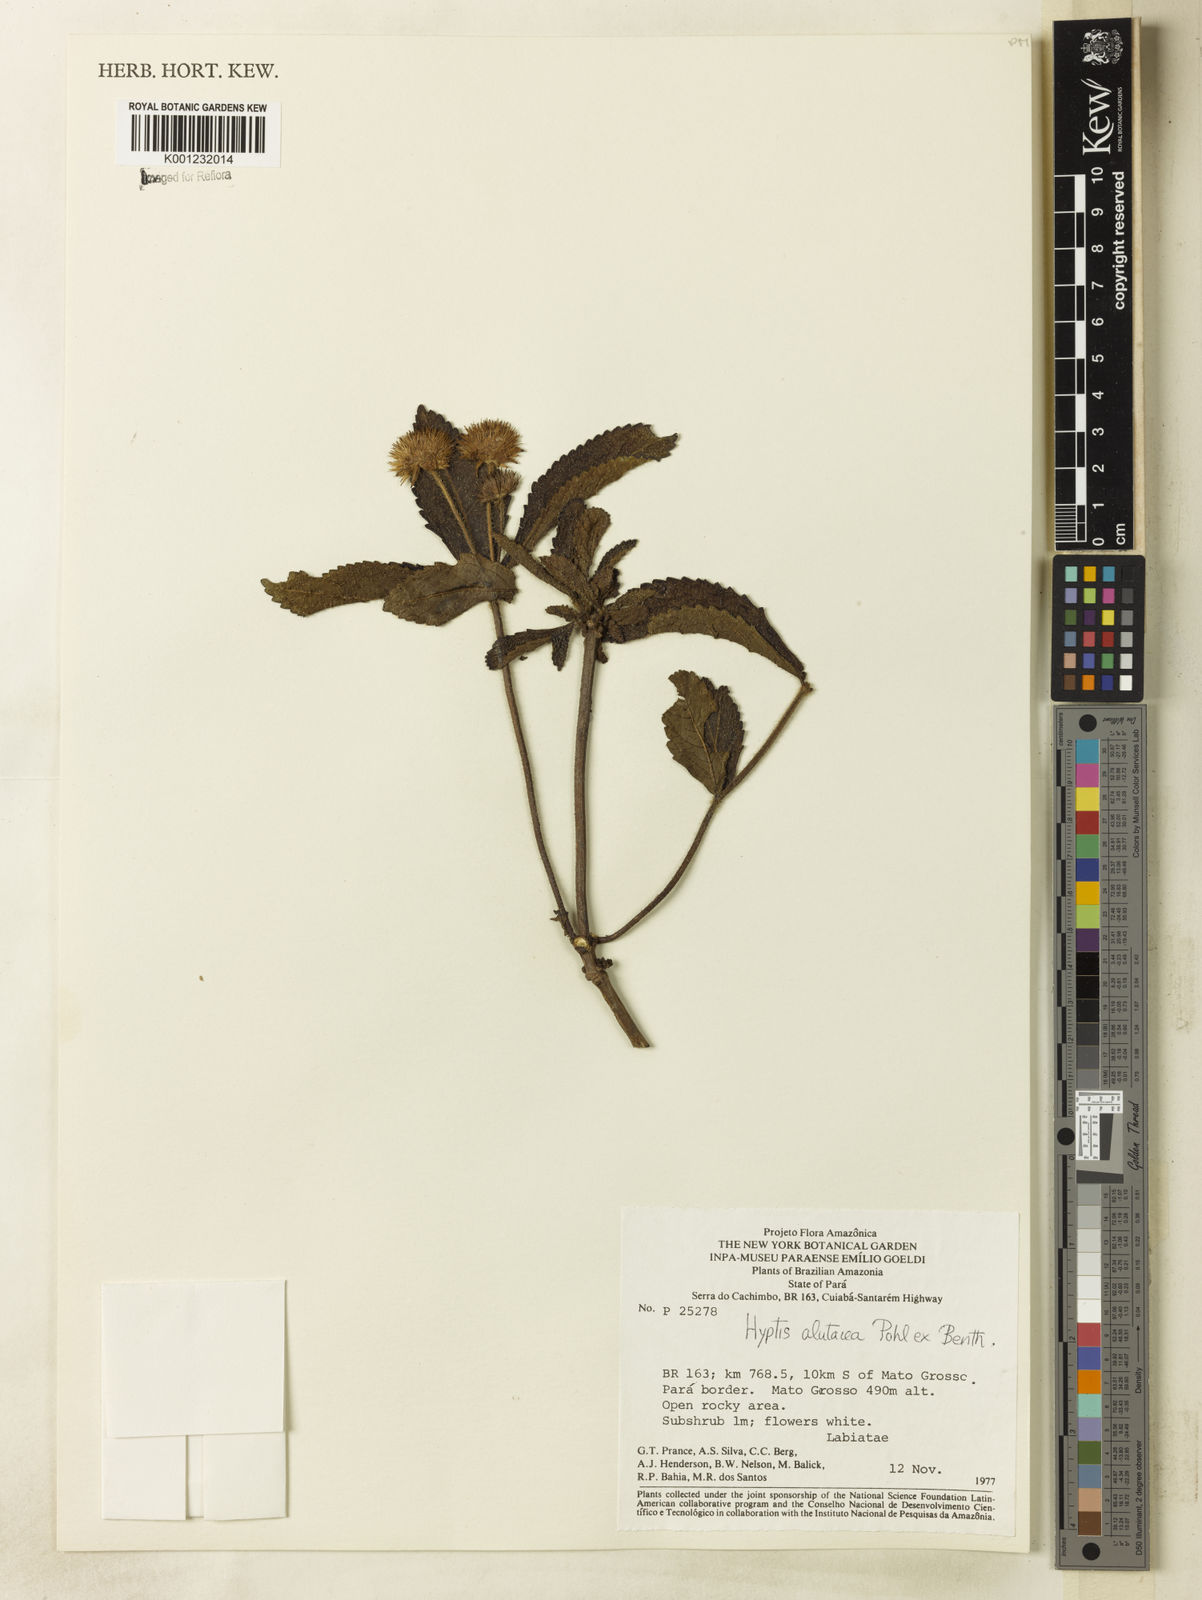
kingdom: Plantae
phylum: Tracheophyta
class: Magnoliopsida
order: Lamiales
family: Lamiaceae
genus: Hyptis
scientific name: Hyptis alutacea
